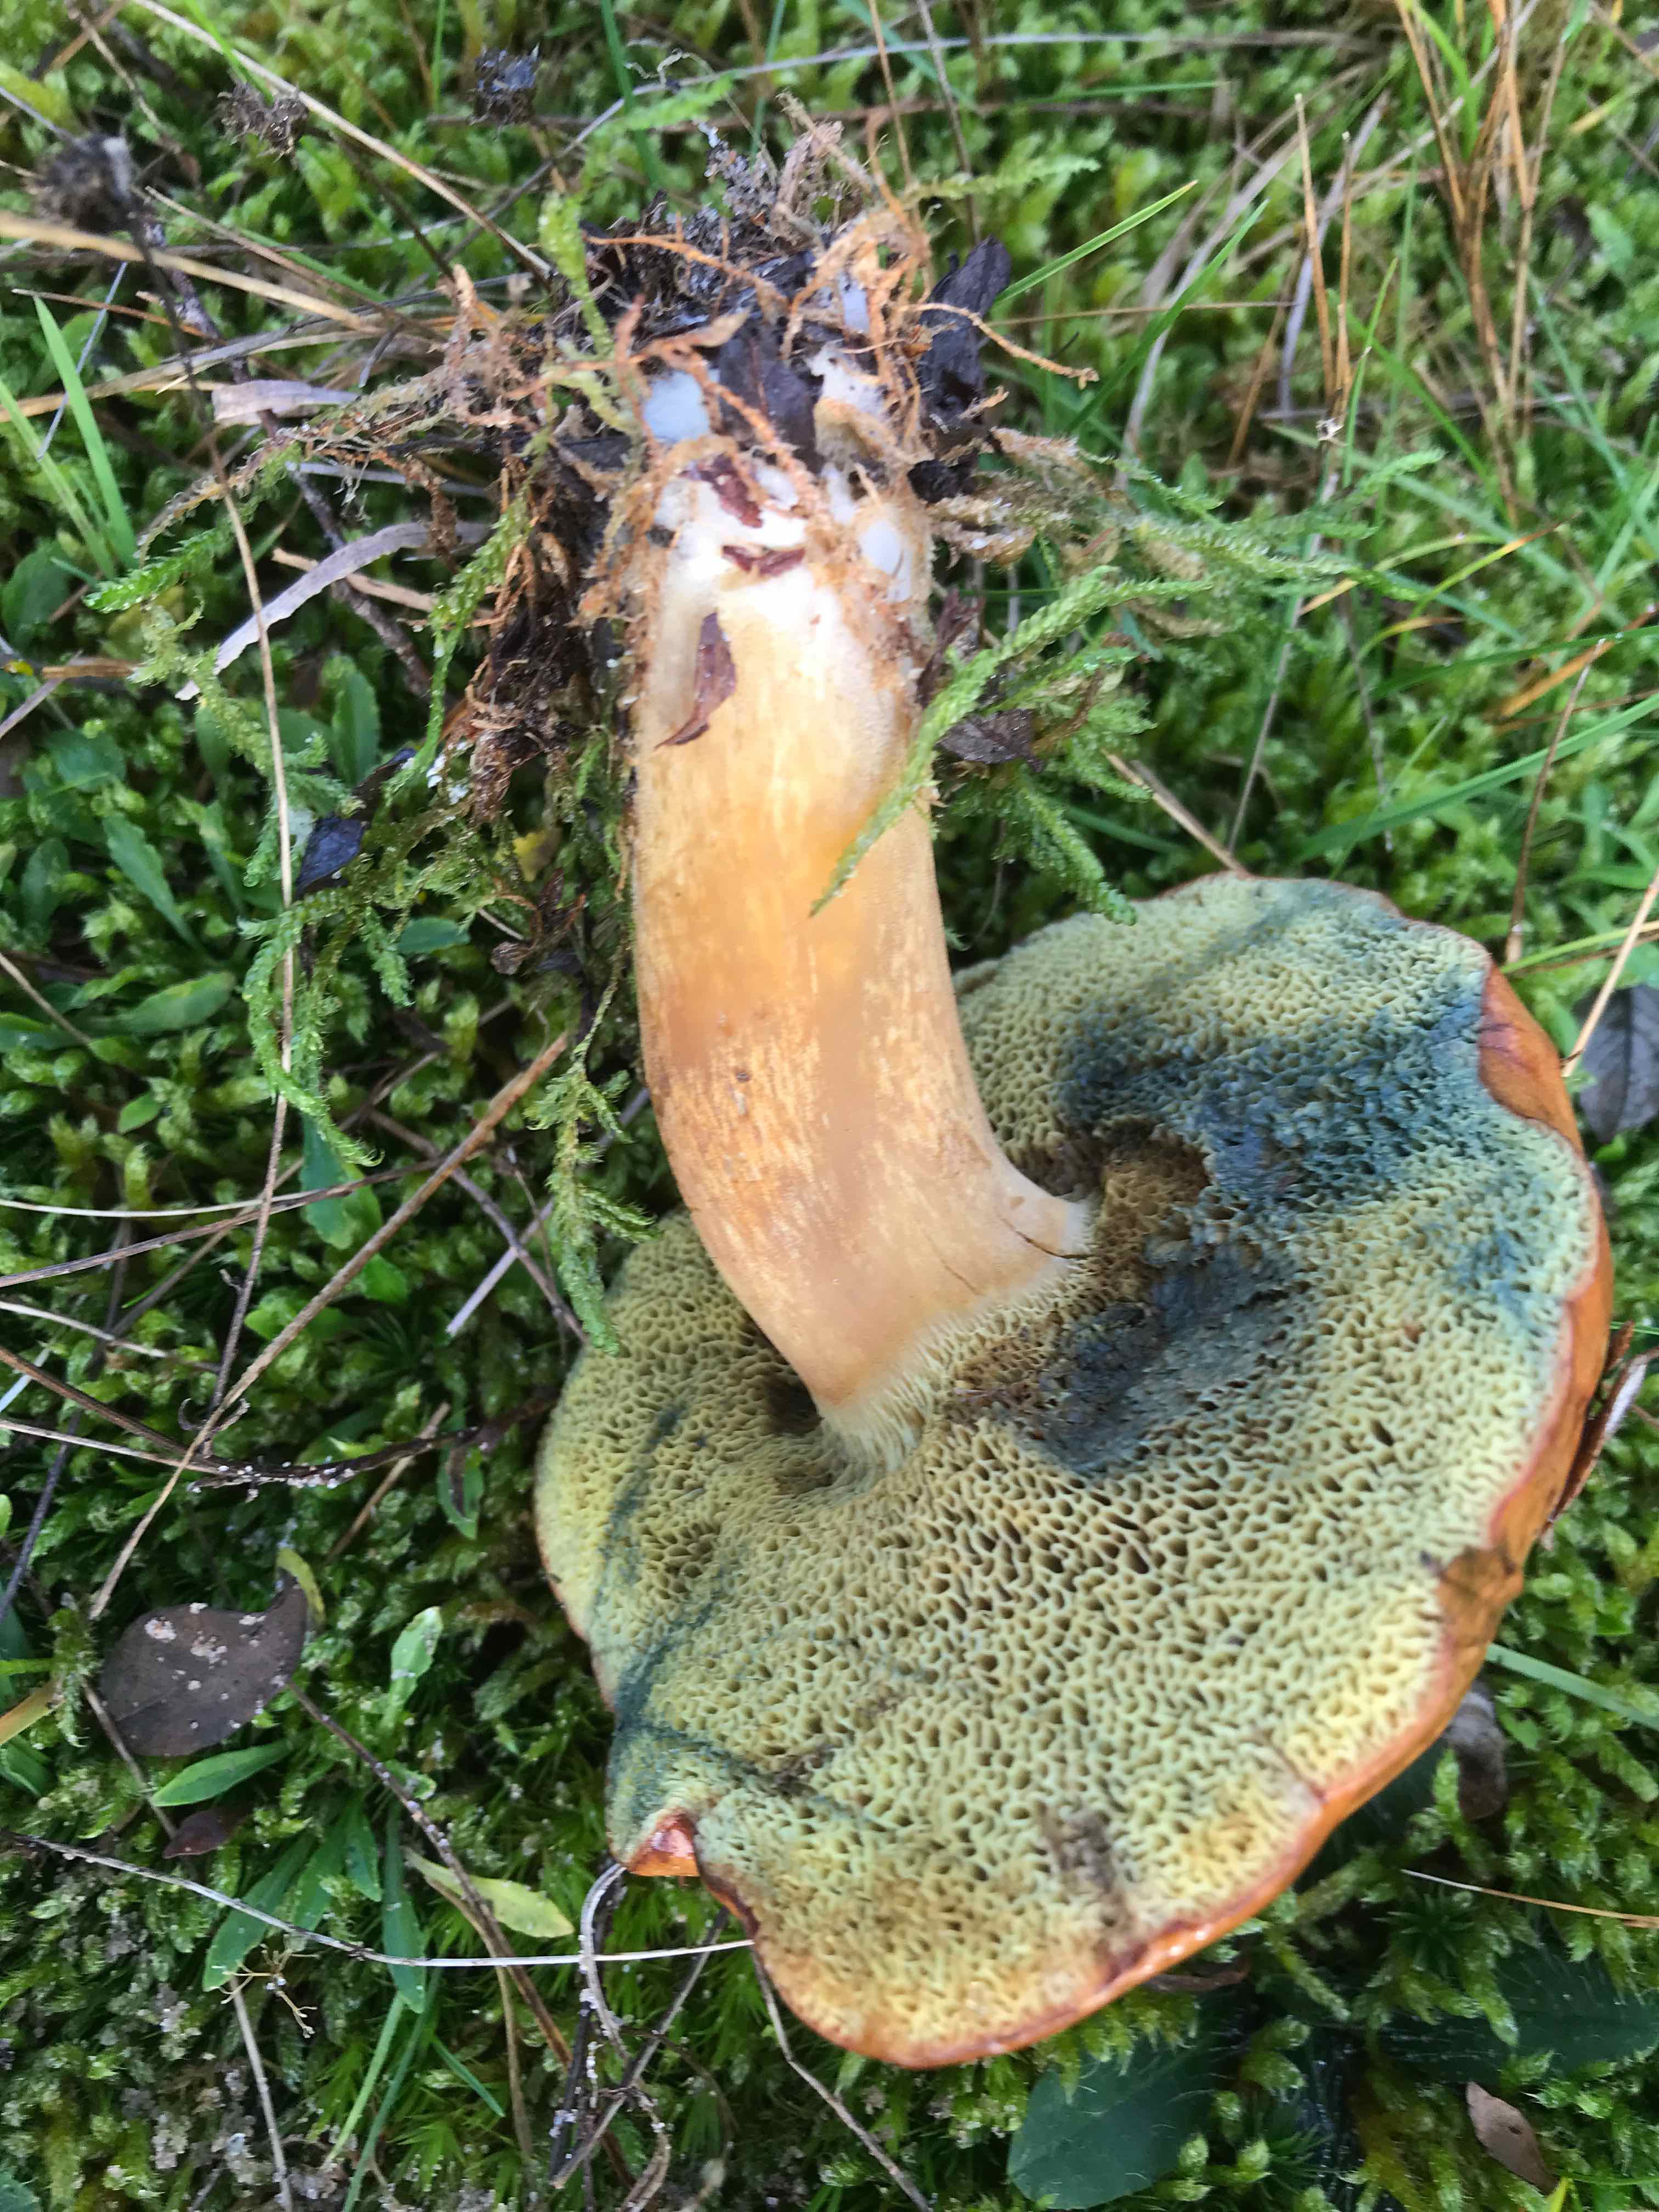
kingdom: Fungi
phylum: Basidiomycota
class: Agaricomycetes
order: Boletales
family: Boletaceae
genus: Imleria
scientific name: Imleria badia
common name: brunstokket rørhat
